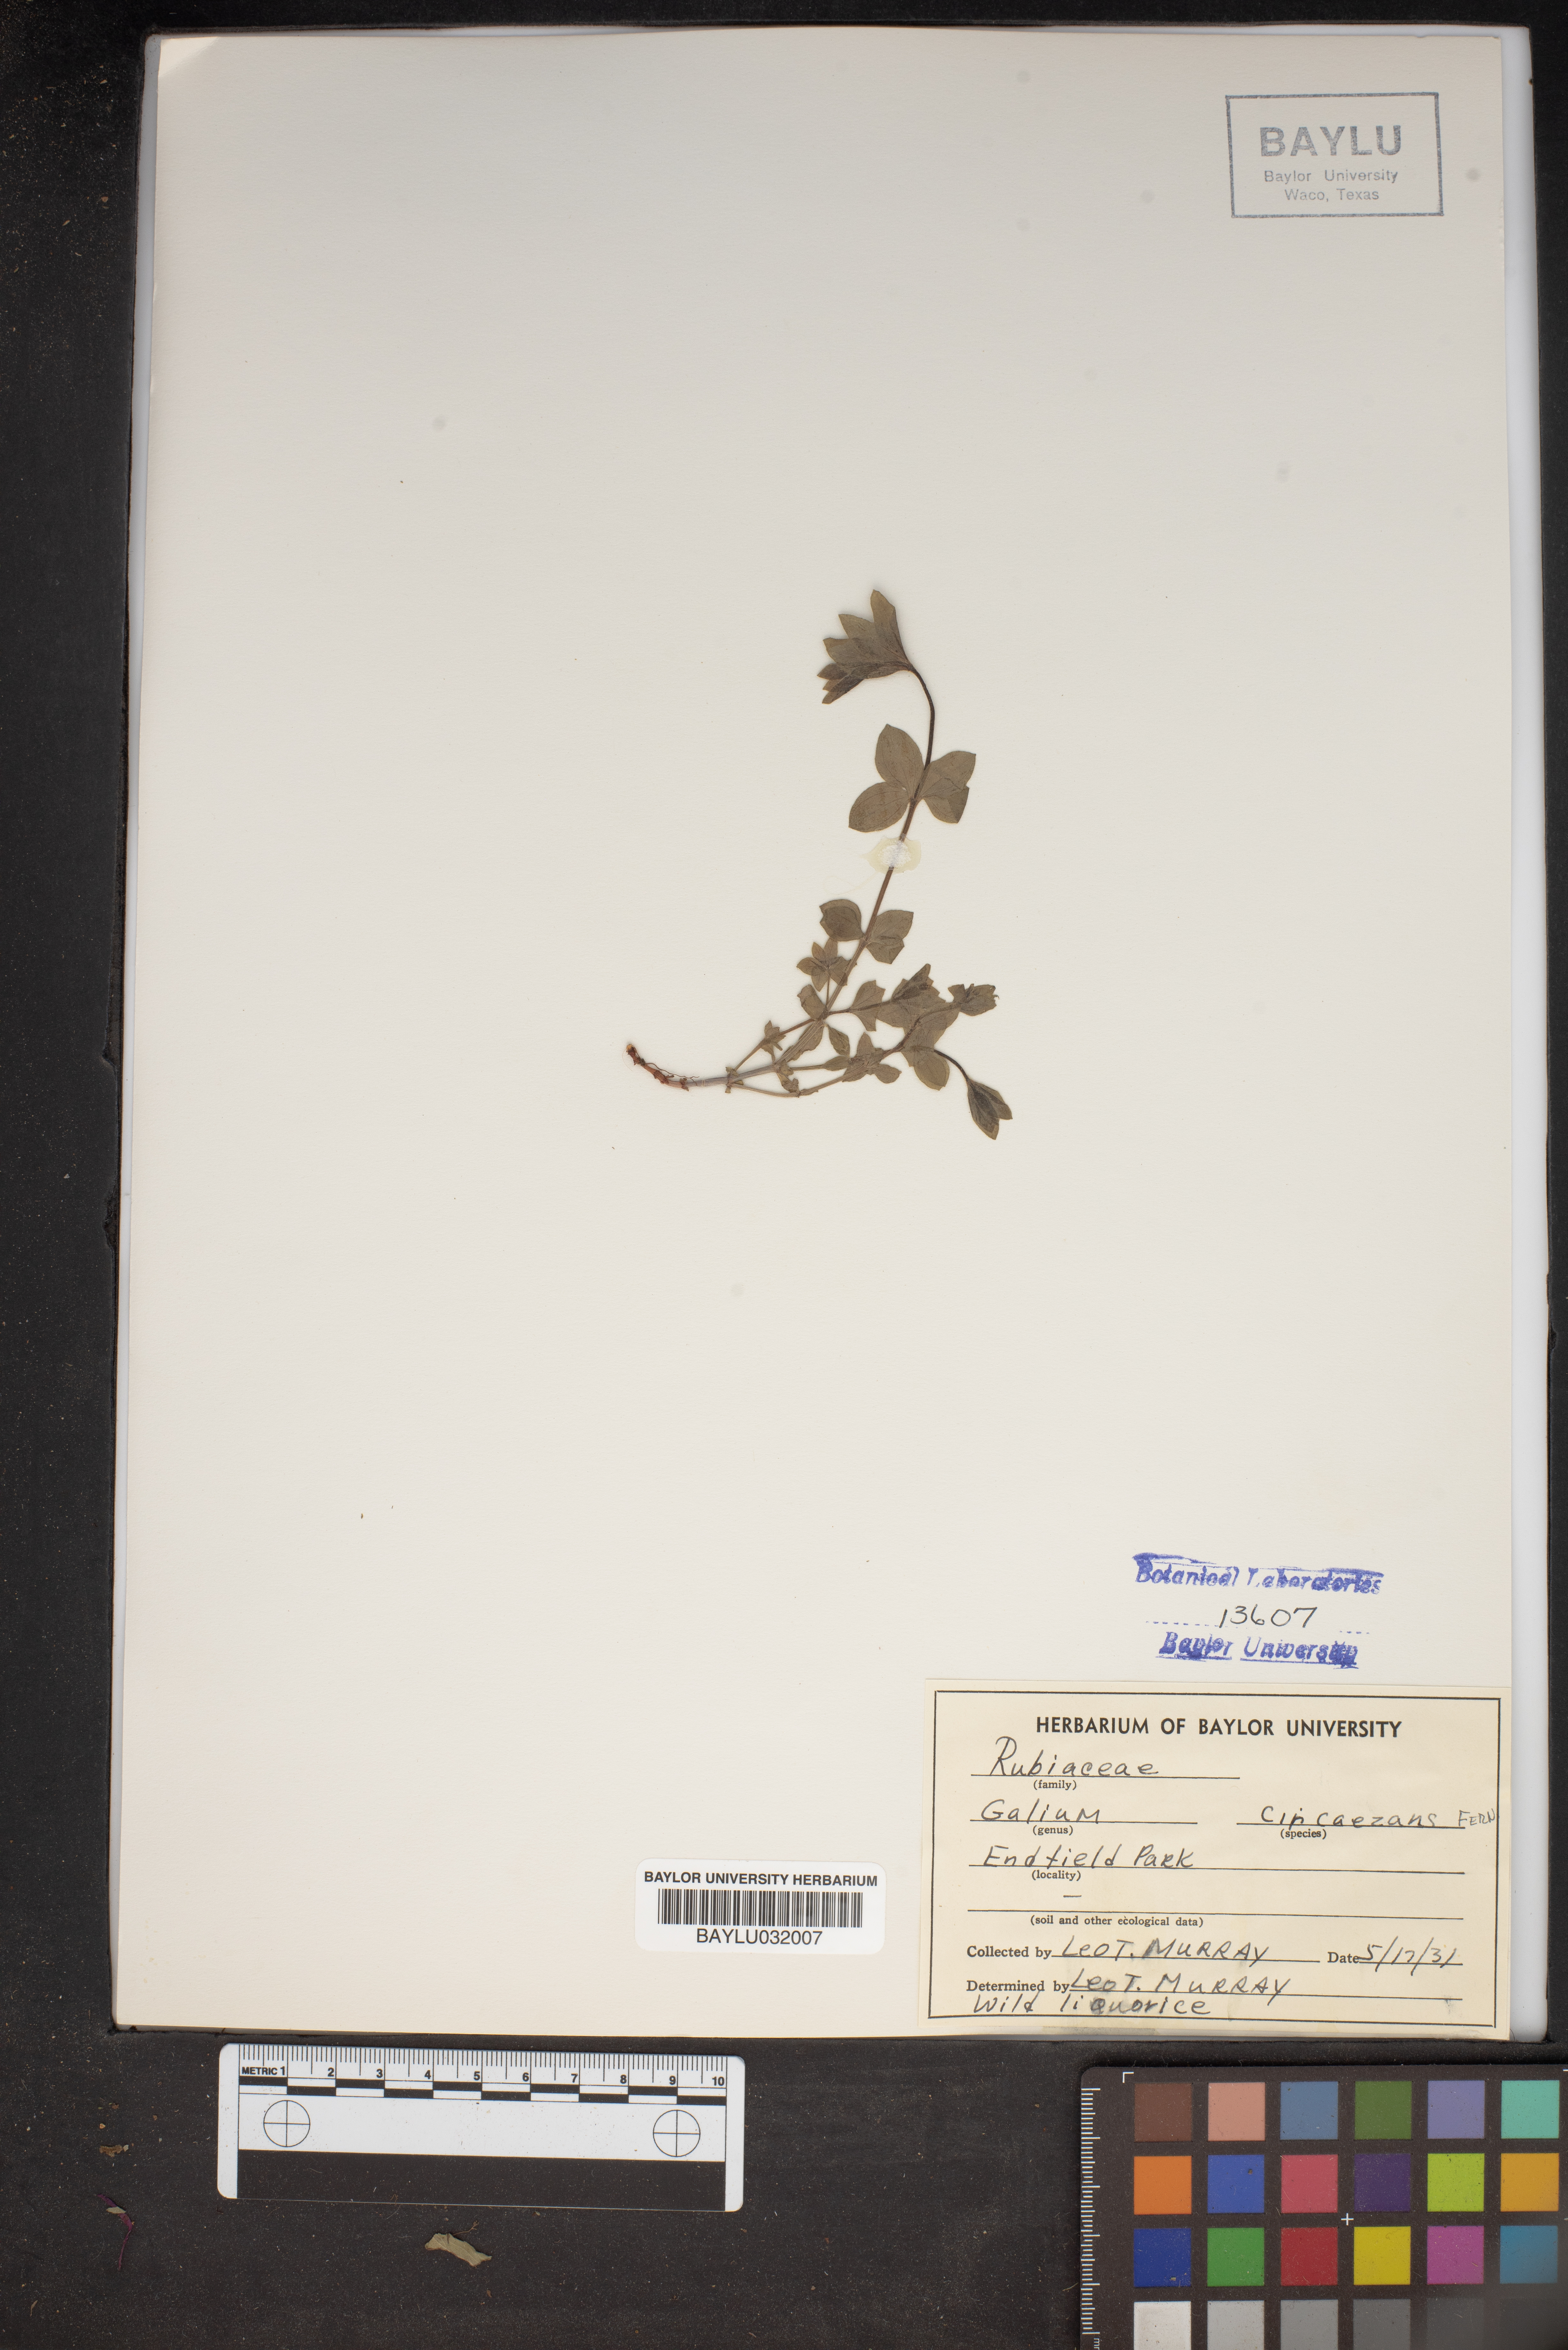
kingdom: Plantae
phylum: Tracheophyta
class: Magnoliopsida
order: Gentianales
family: Rubiaceae
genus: Galium
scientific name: Galium circaezans
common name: Forest bedstraw
